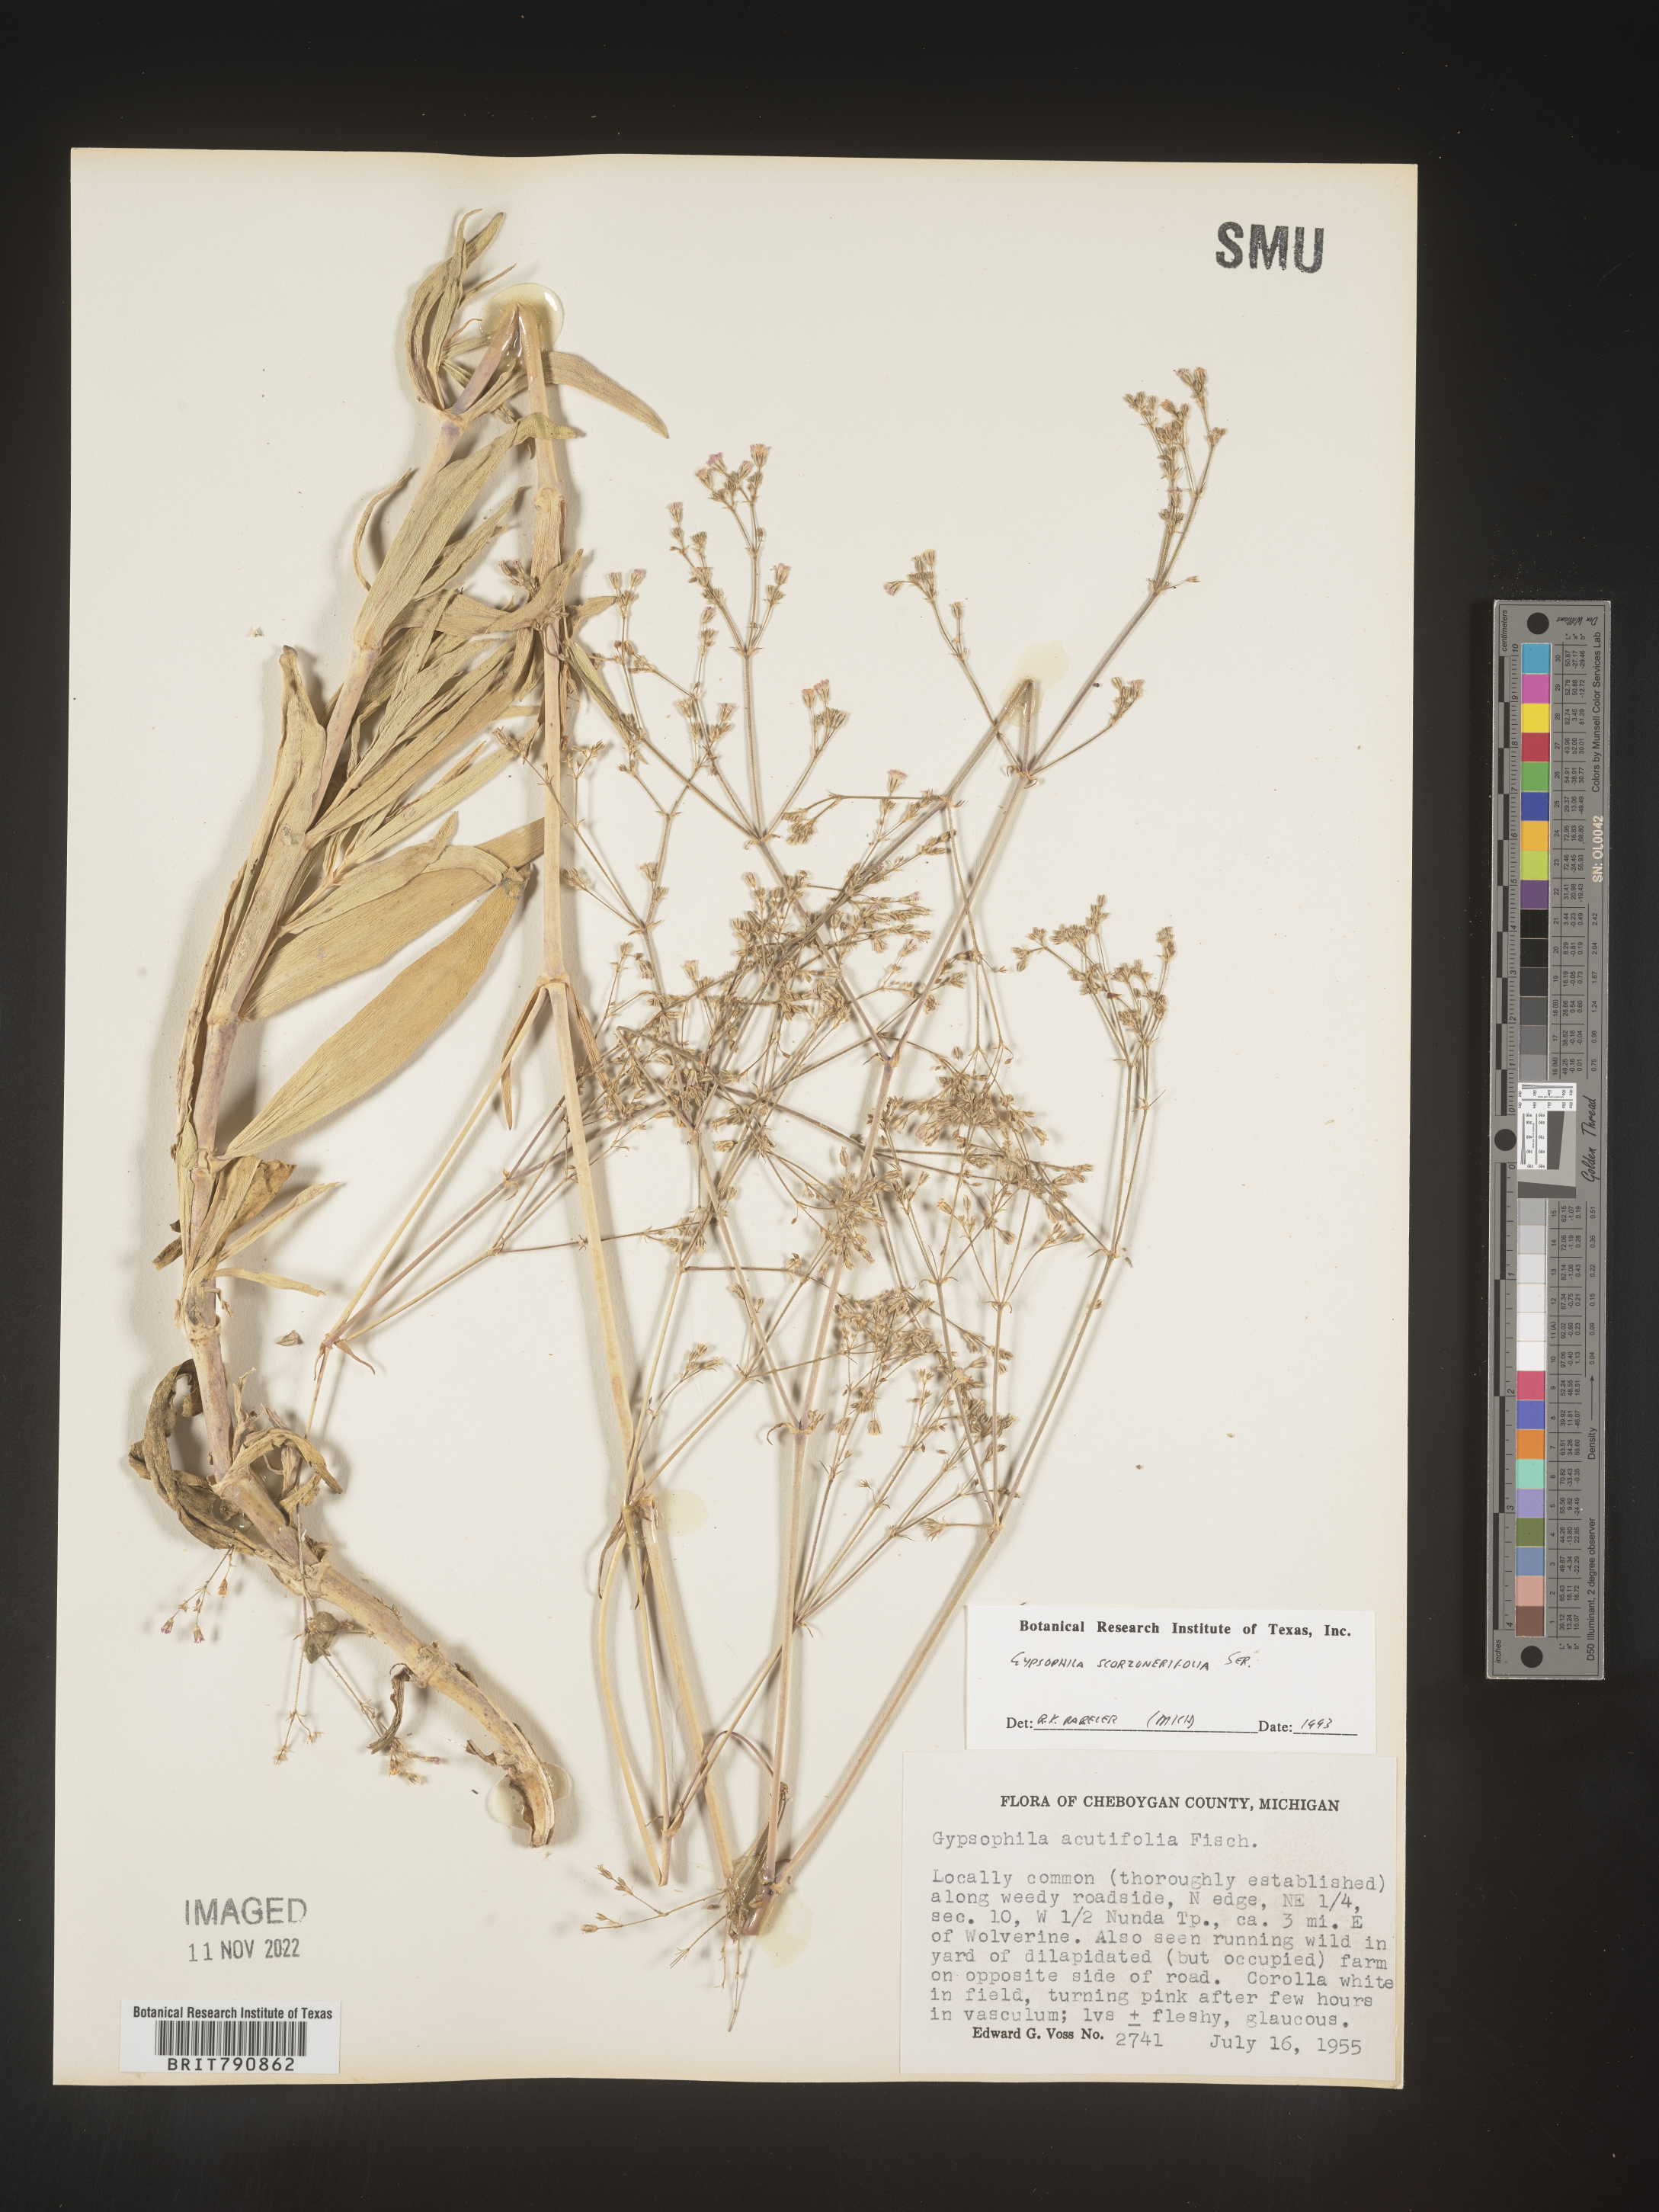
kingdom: Plantae
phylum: Tracheophyta
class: Magnoliopsida
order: Caryophyllales
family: Caryophyllaceae
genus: Gypsophila
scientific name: Gypsophila
